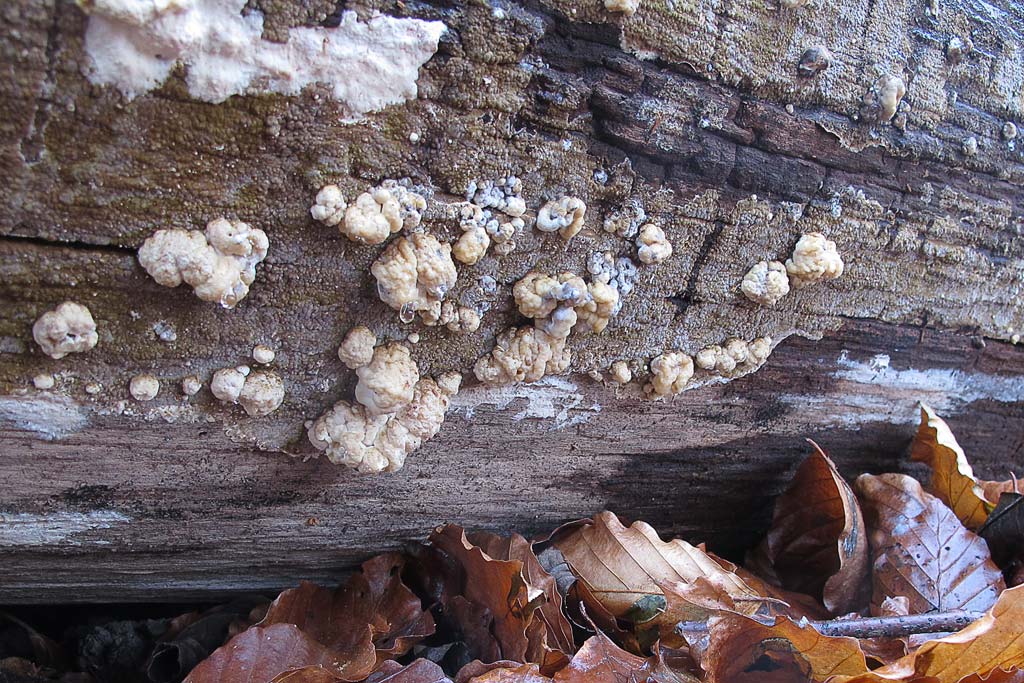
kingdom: Fungi
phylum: Ascomycota
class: Sordariomycetes
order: Xylariales
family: Hypoxylaceae
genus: Nodulisporium
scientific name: Nodulisporium cecidiogenes
